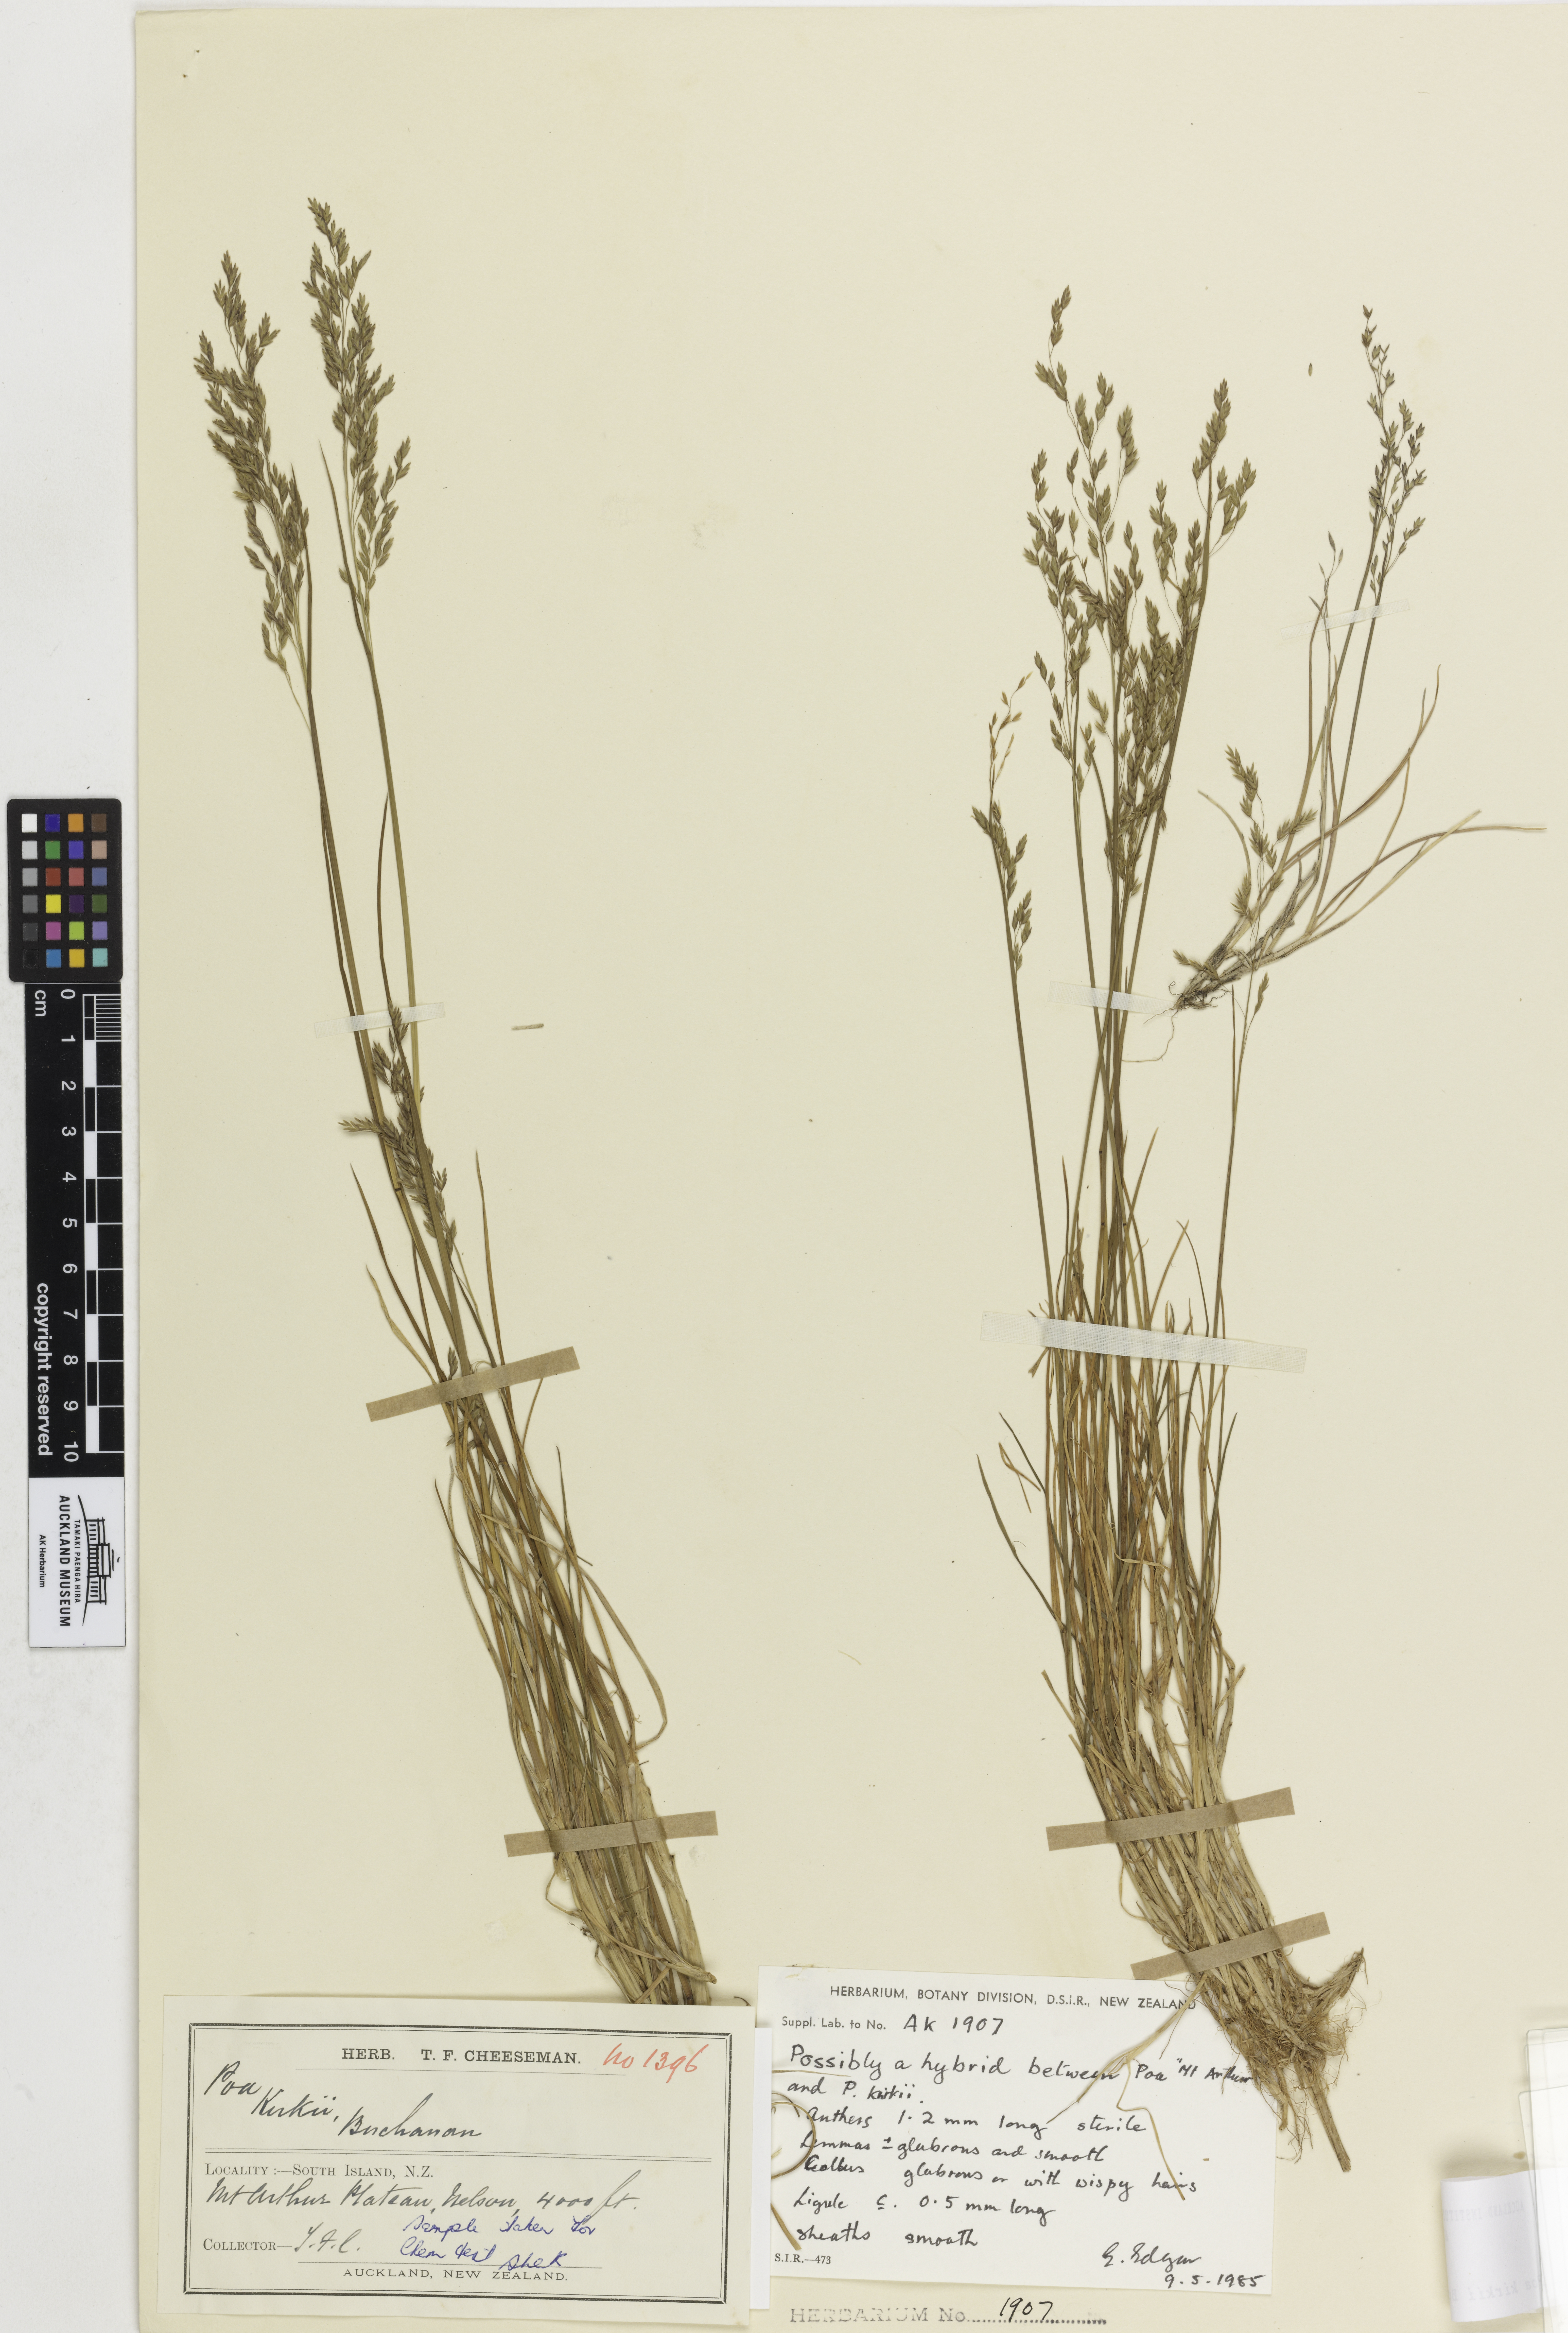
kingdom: Plantae
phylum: Tracheophyta
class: Liliopsida
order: Poales
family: Poaceae
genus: Poa
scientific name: Poa
